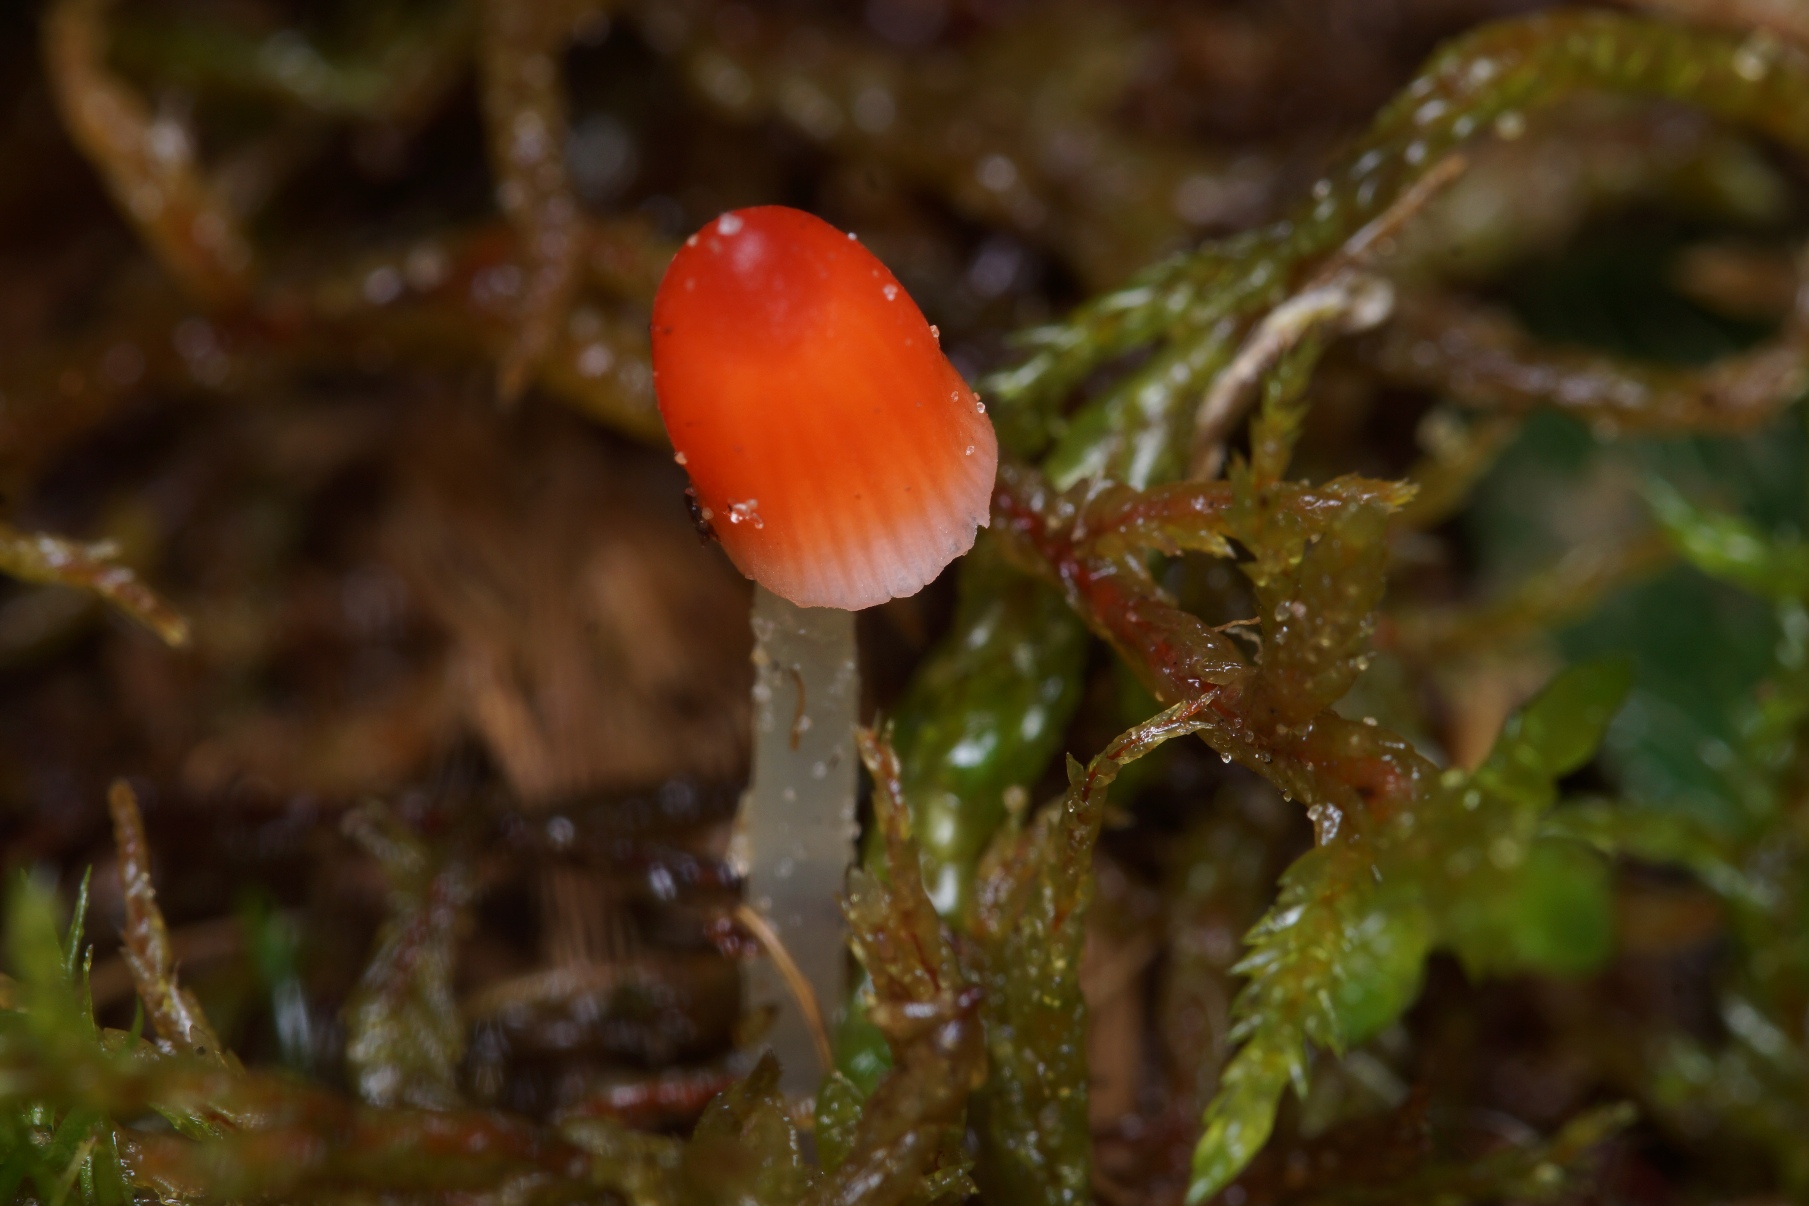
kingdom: Fungi
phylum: Basidiomycota
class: Agaricomycetes
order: Agaricales
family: Mycenaceae
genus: Atheniella
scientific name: Atheniella adonis
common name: Rønnerød huesvamp
